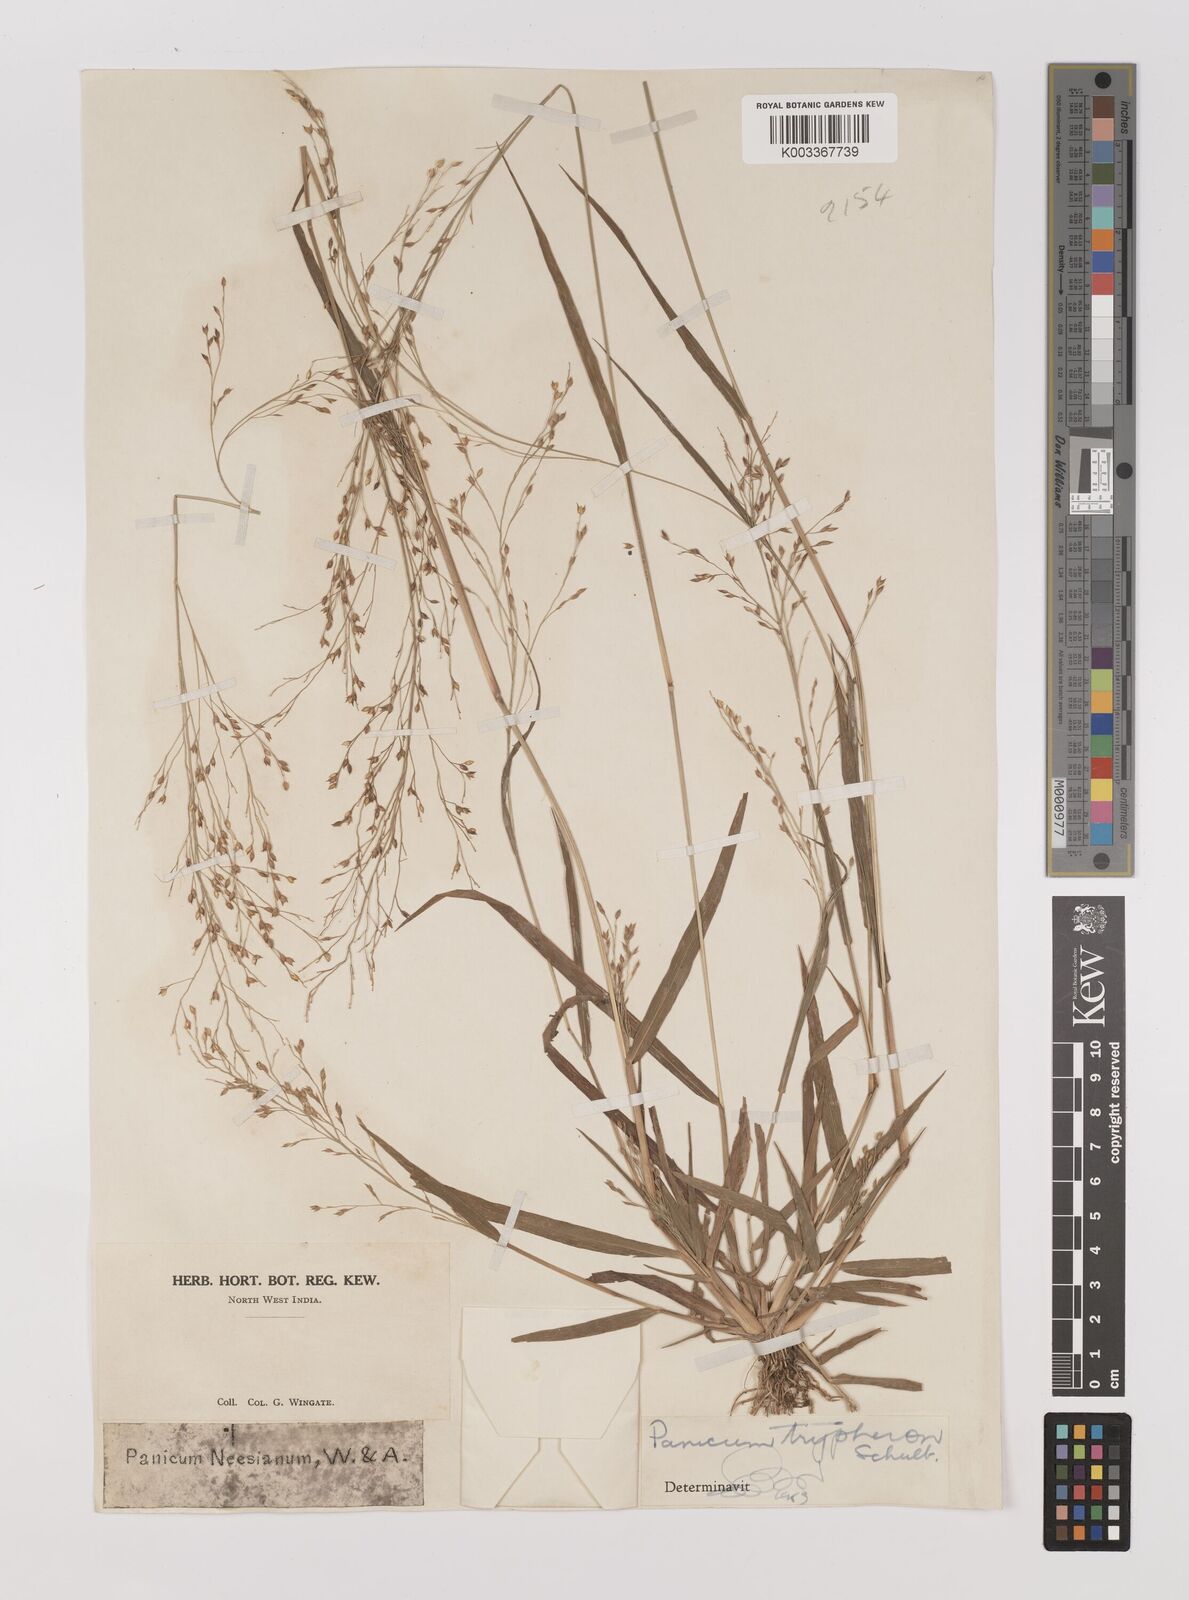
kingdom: Plantae
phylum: Tracheophyta
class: Liliopsida
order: Poales
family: Poaceae
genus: Panicum
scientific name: Panicum curviflorum
